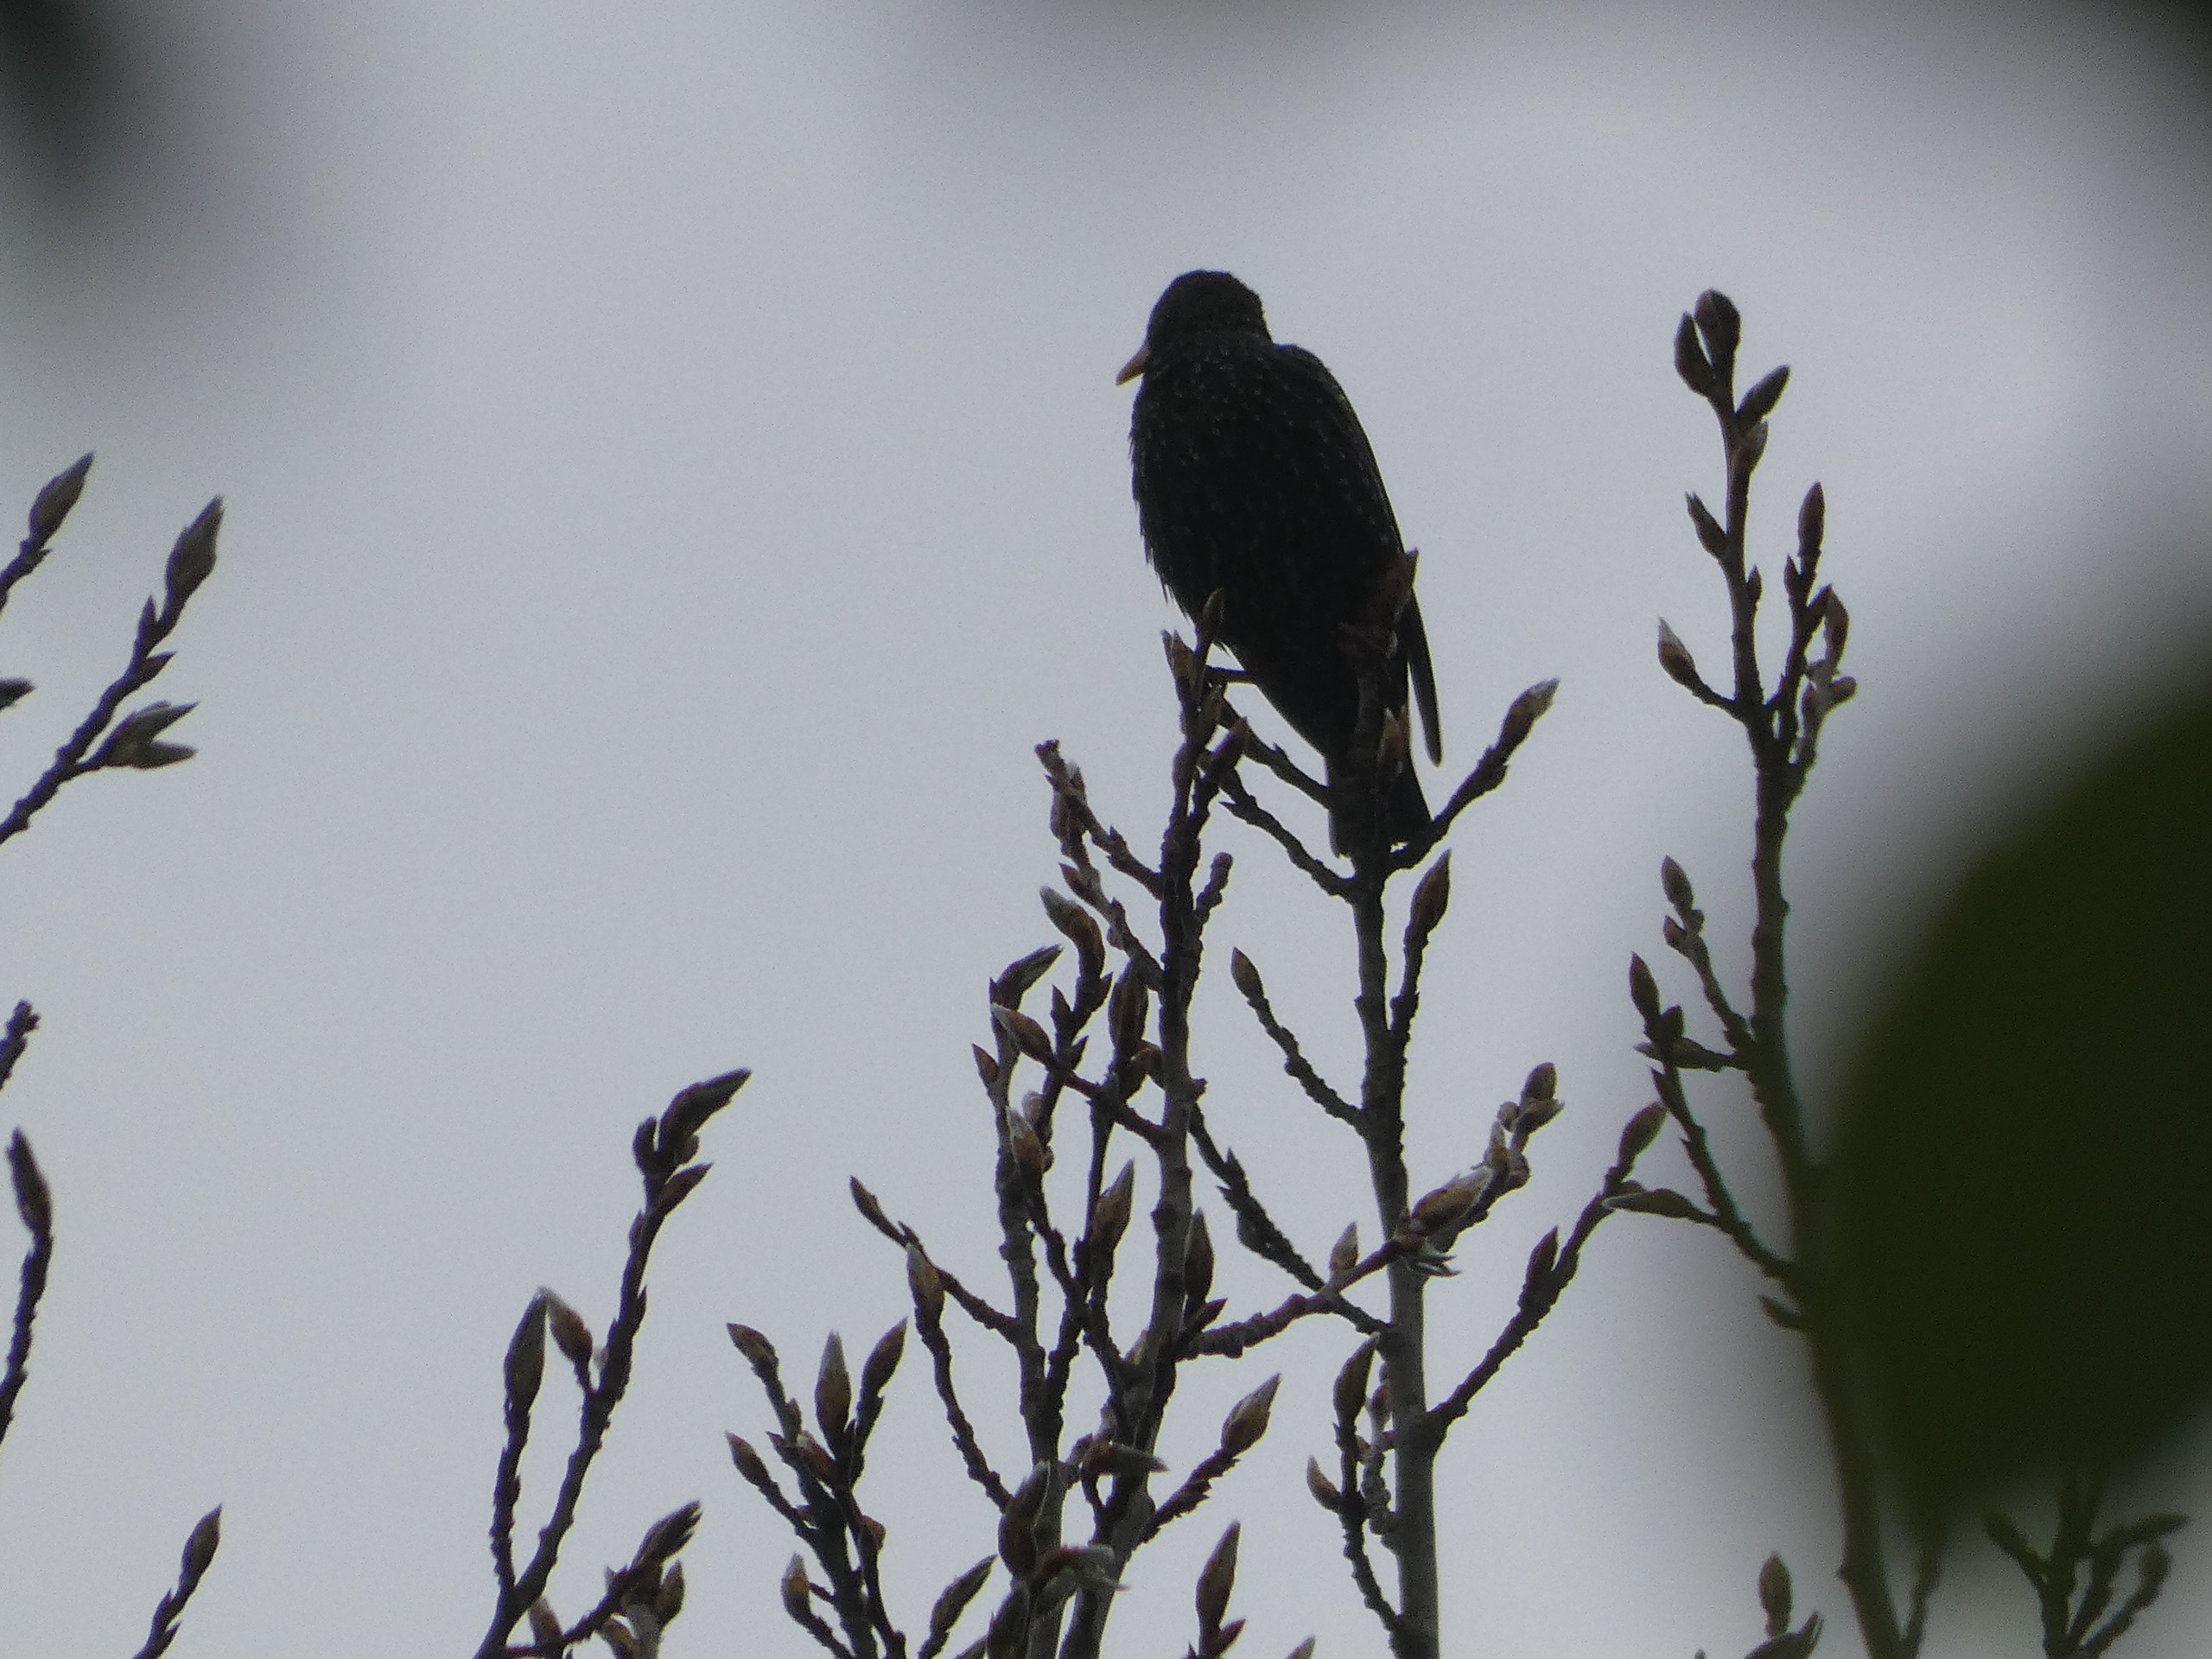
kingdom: Animalia
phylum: Chordata
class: Aves
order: Passeriformes
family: Sturnidae
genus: Sturnus
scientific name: Sturnus vulgaris
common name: Stær
